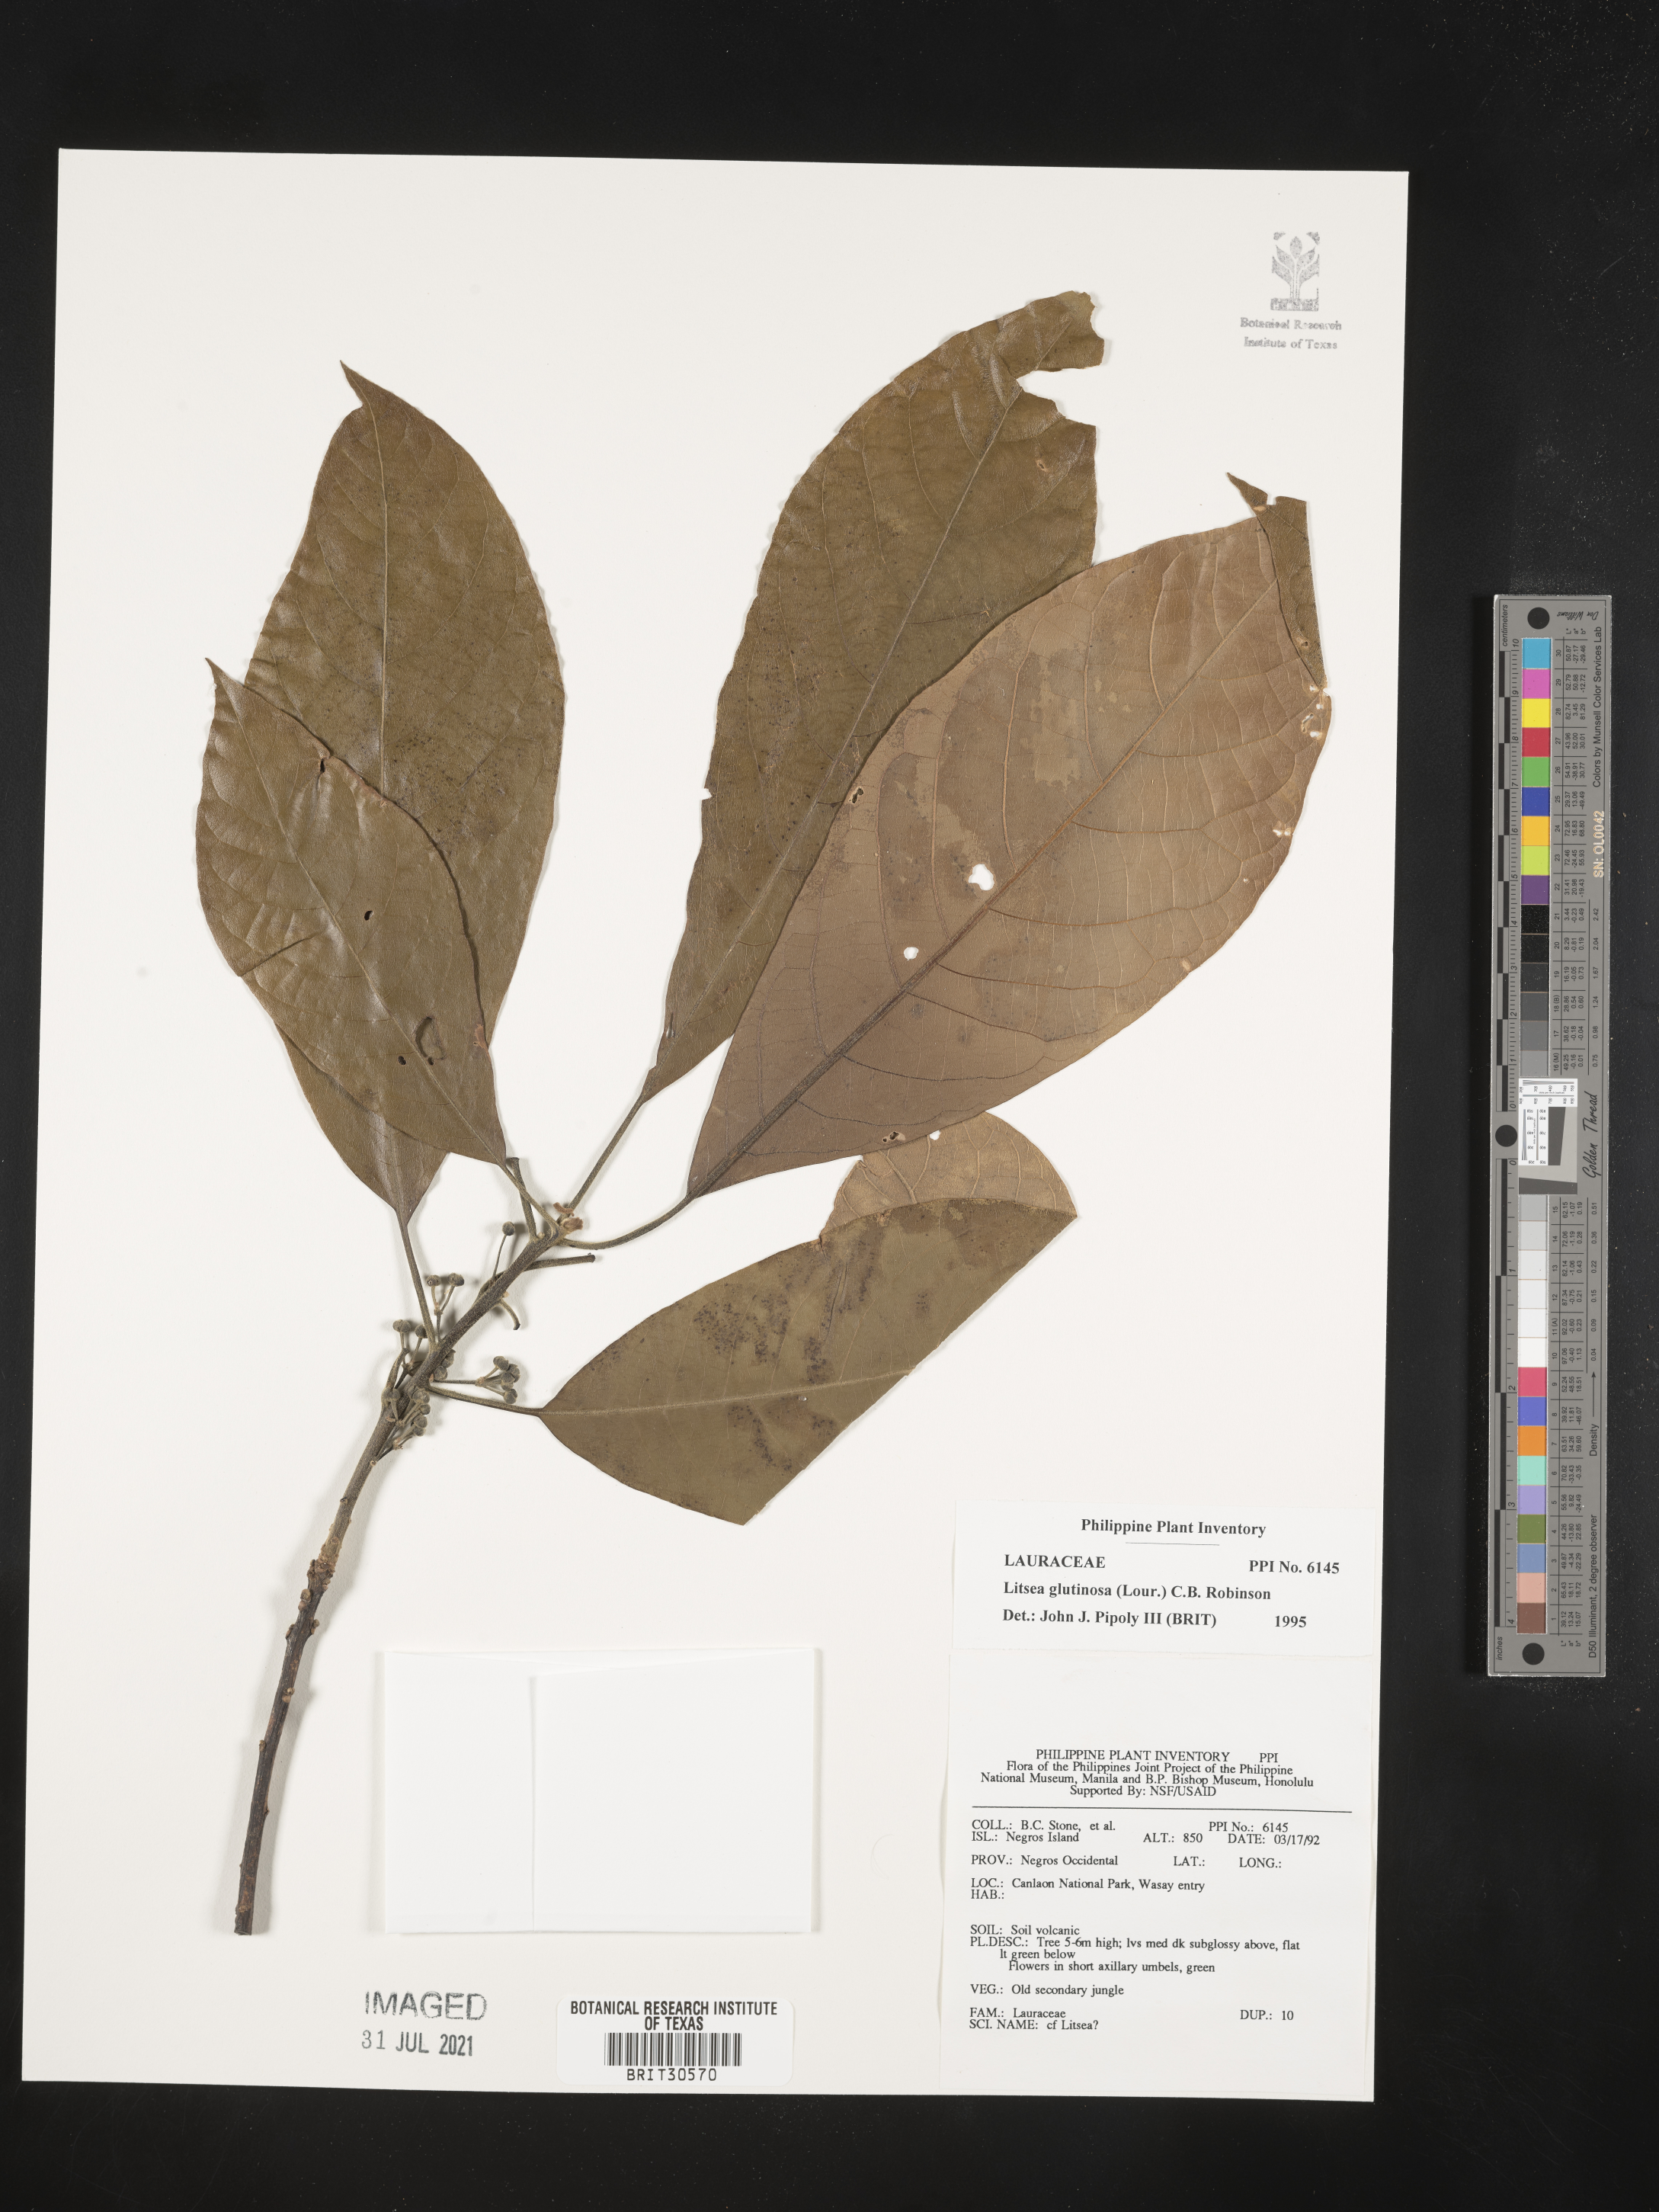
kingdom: Plantae
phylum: Tracheophyta
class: Magnoliopsida
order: Laurales
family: Lauraceae
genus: Litsea
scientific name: Litsea glutinosa
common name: Indian-laurel
